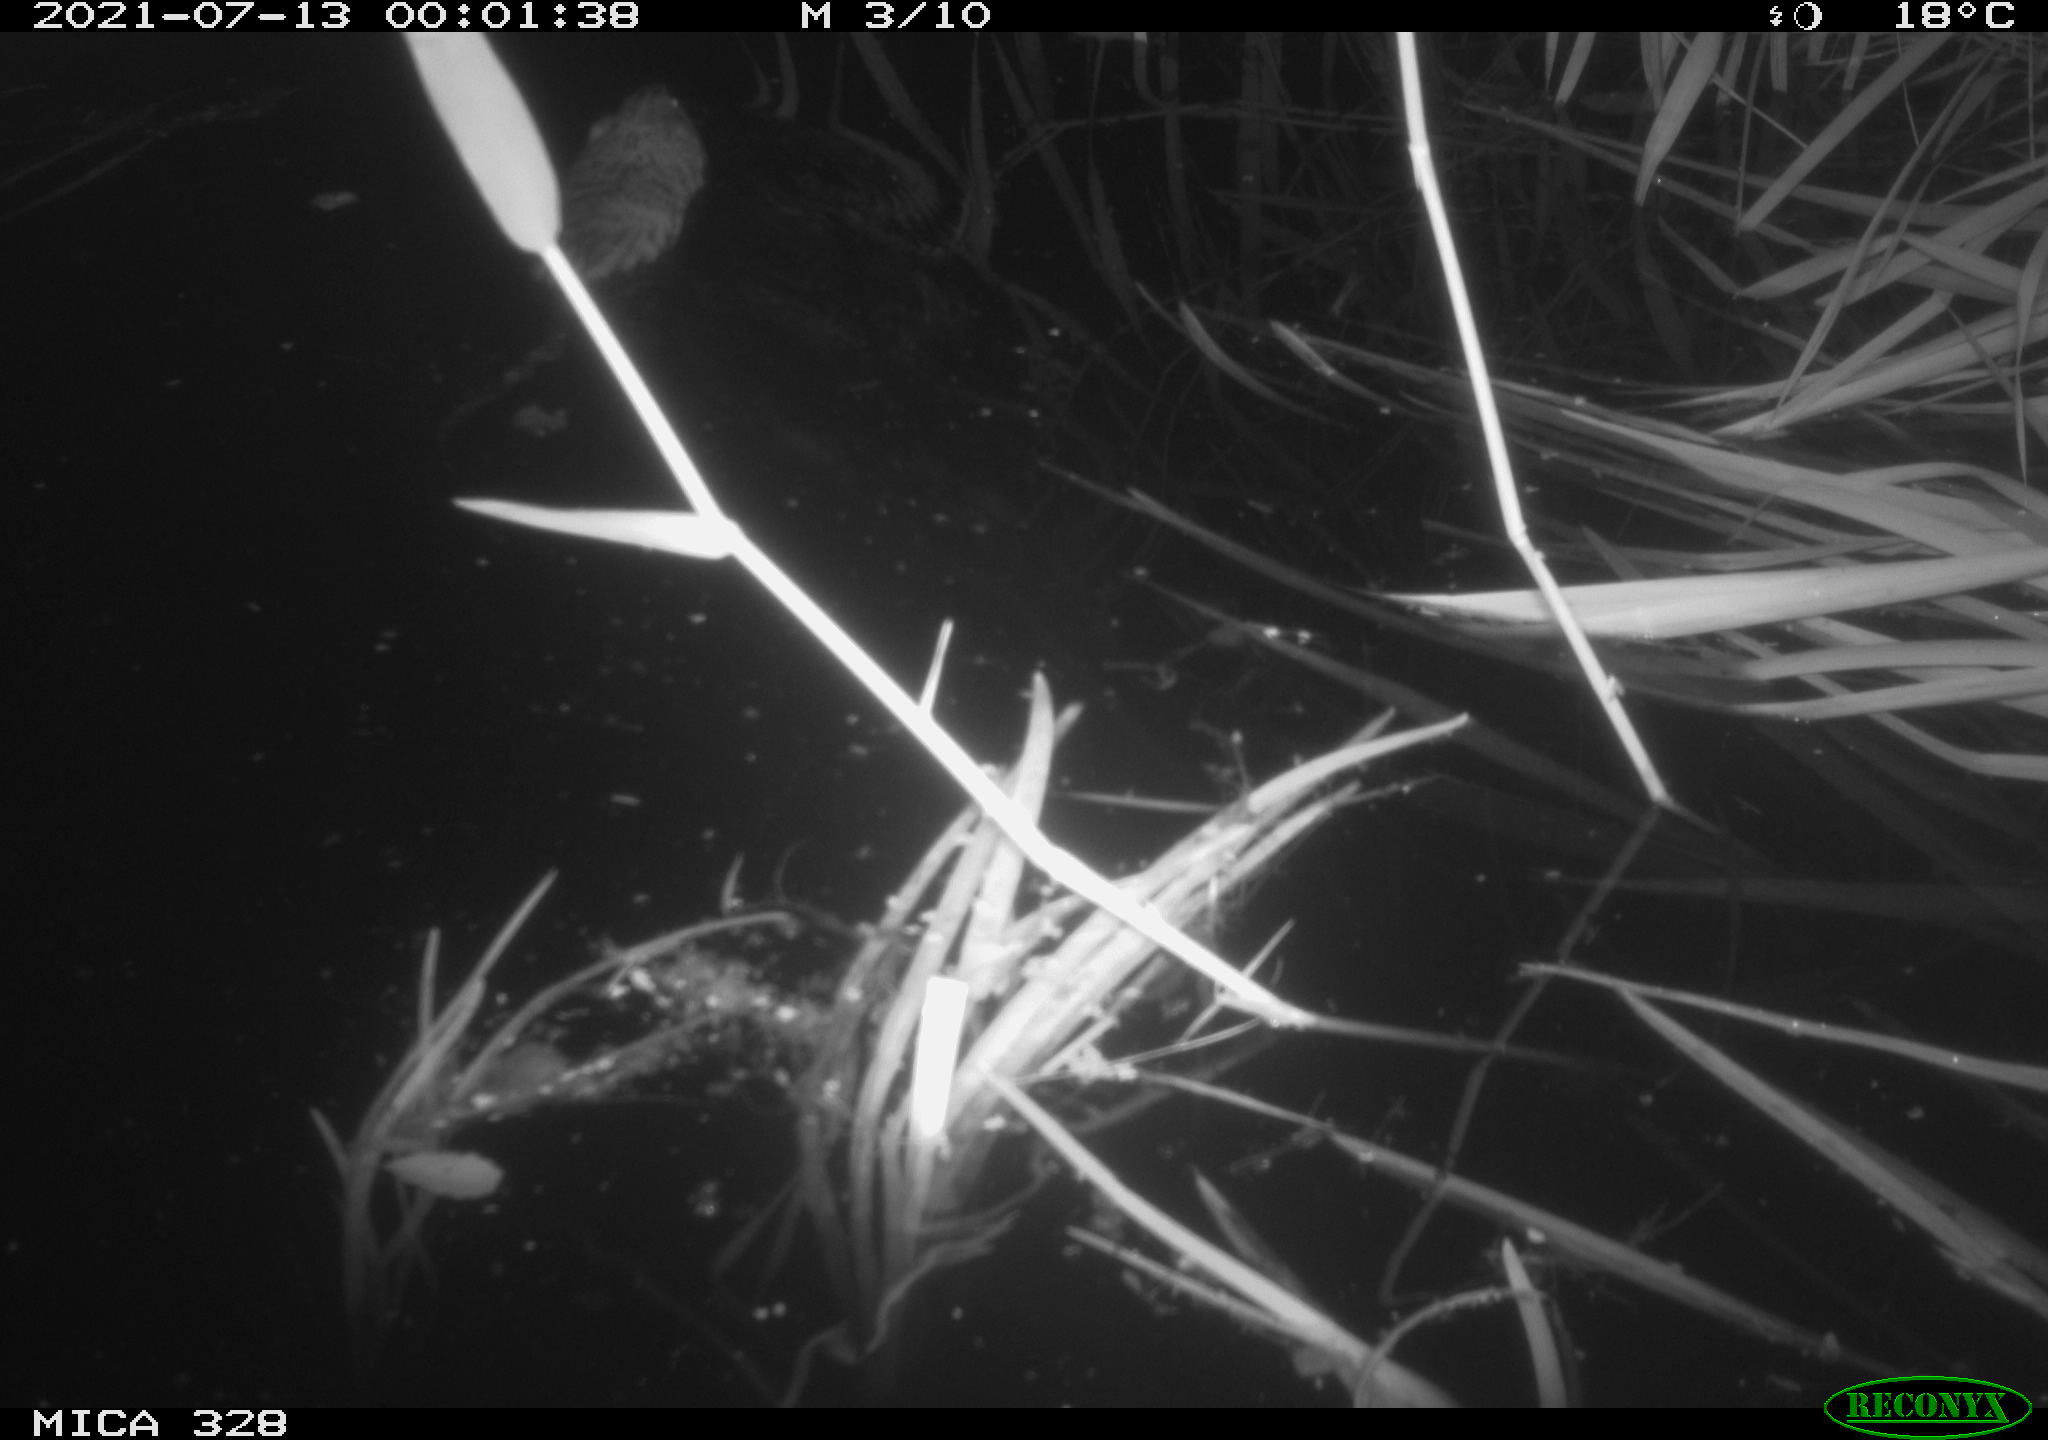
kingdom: Animalia
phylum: Chordata
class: Mammalia
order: Rodentia
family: Cricetidae
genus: Ondatra
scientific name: Ondatra zibethicus
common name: Muskrat
